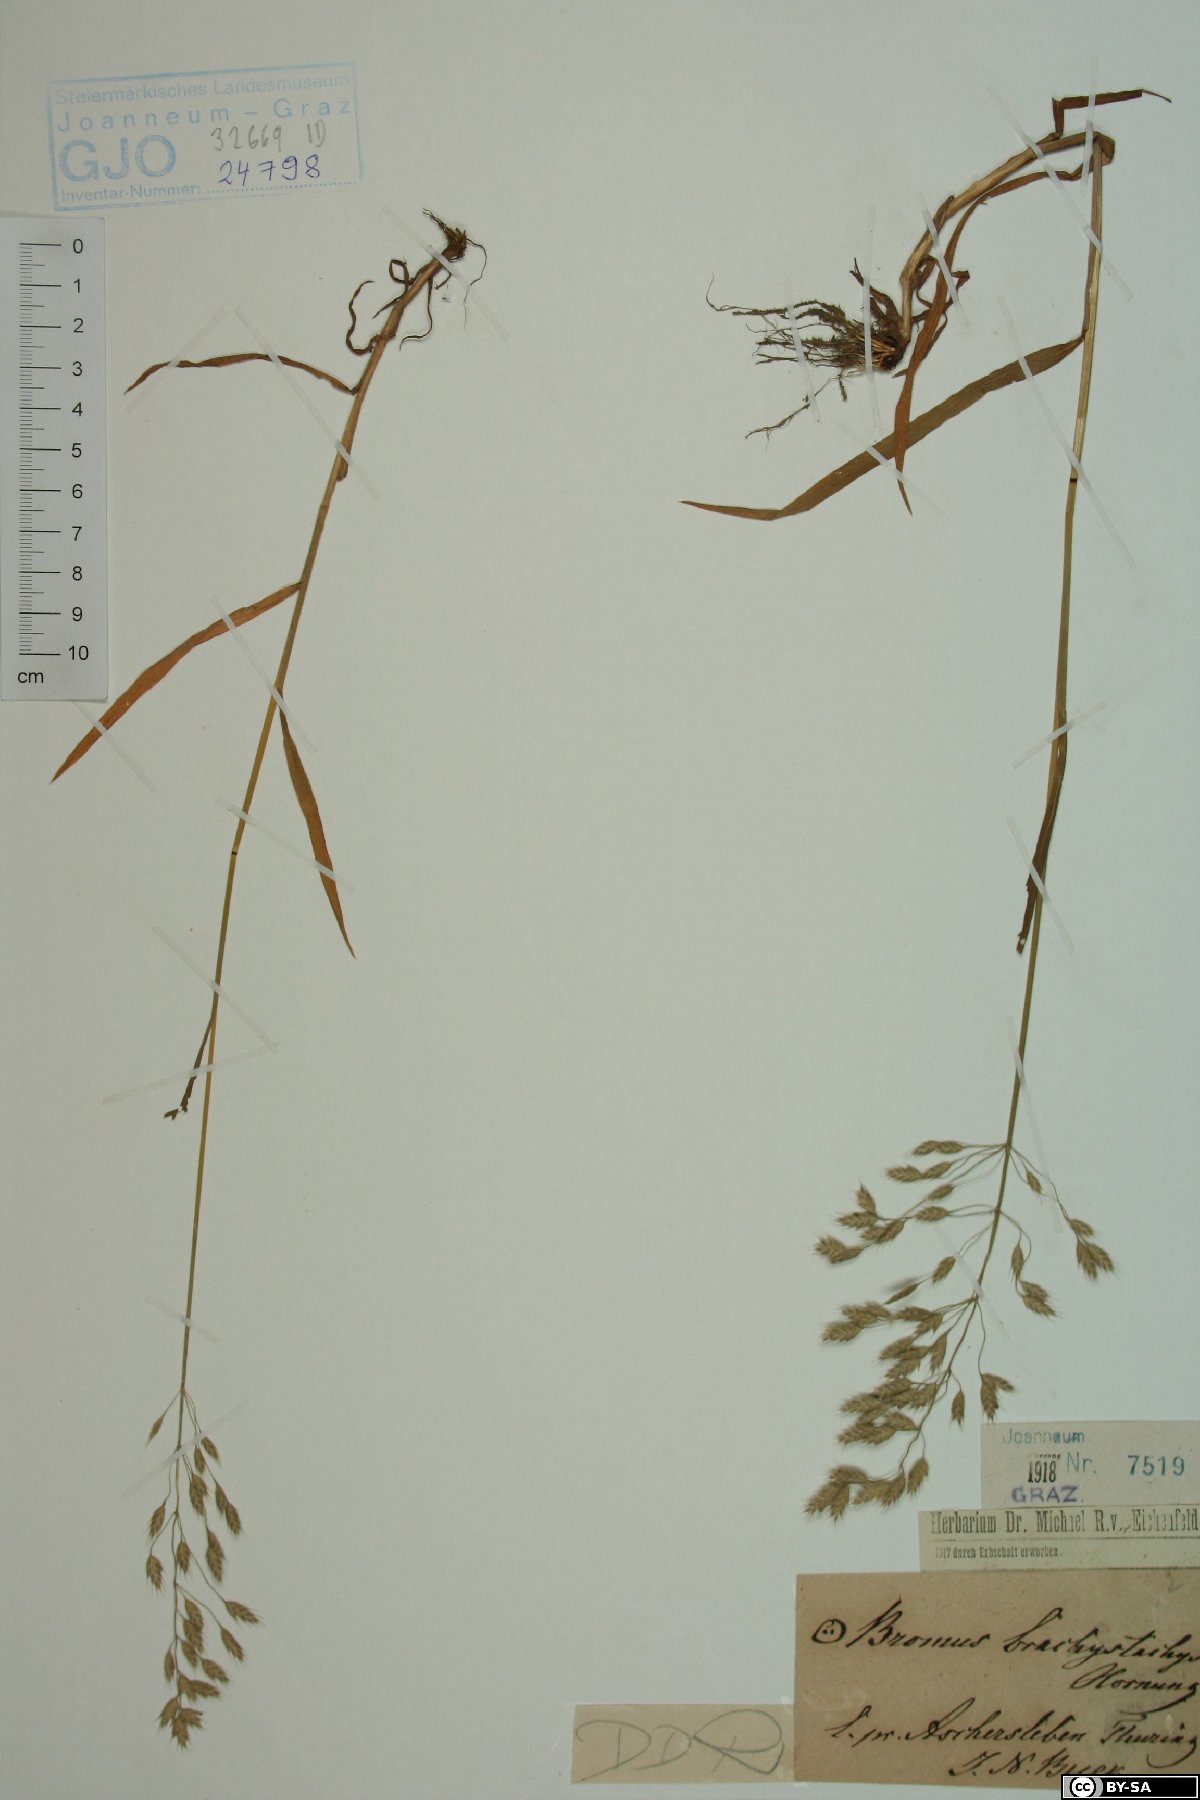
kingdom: Plantae
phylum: Tracheophyta
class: Liliopsida
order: Poales
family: Poaceae
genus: Bromus
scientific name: Bromus brachystachys
